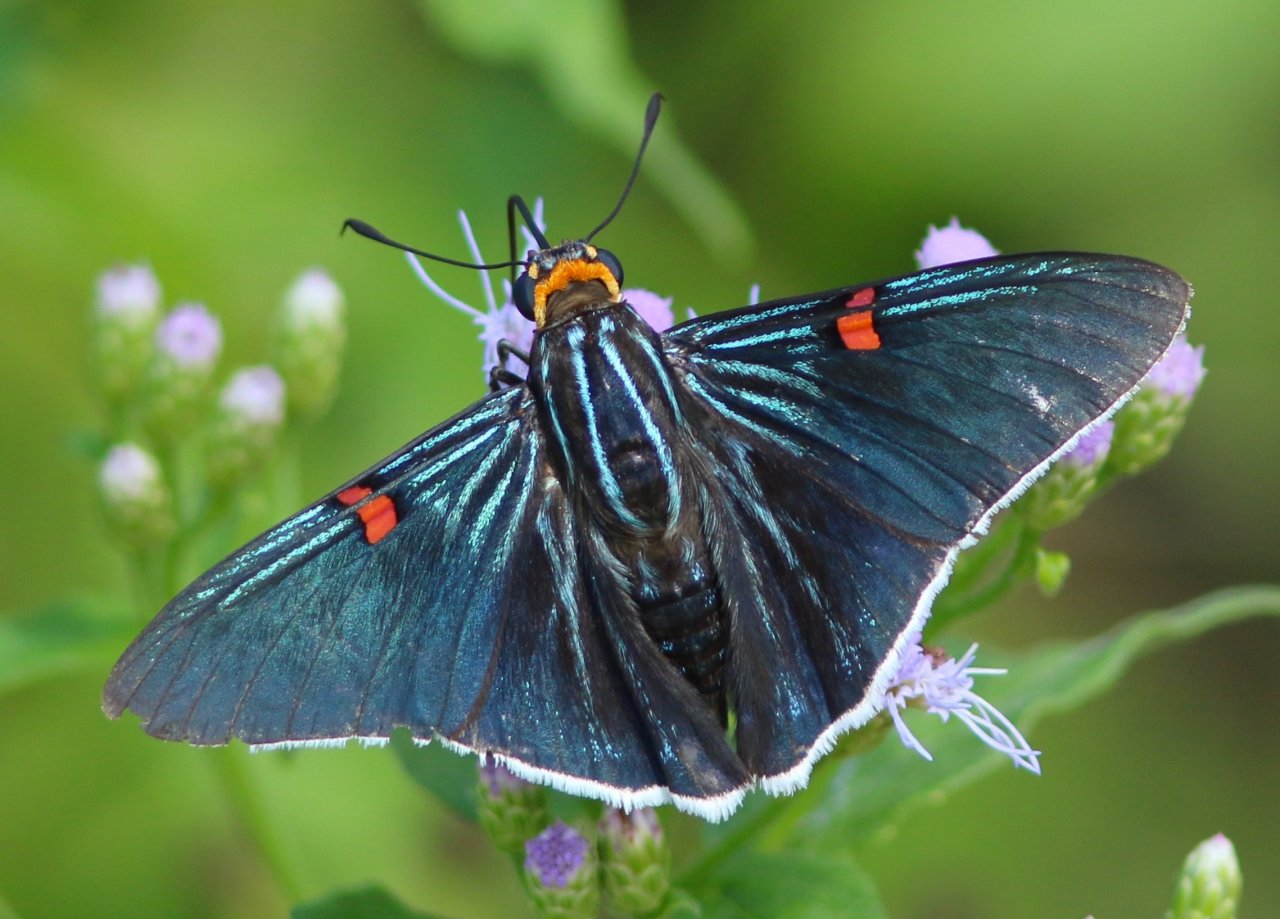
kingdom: Animalia
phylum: Arthropoda
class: Insecta
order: Lepidoptera
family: Hesperiidae
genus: Phocides
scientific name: Phocides polybius
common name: Guava Skipper
